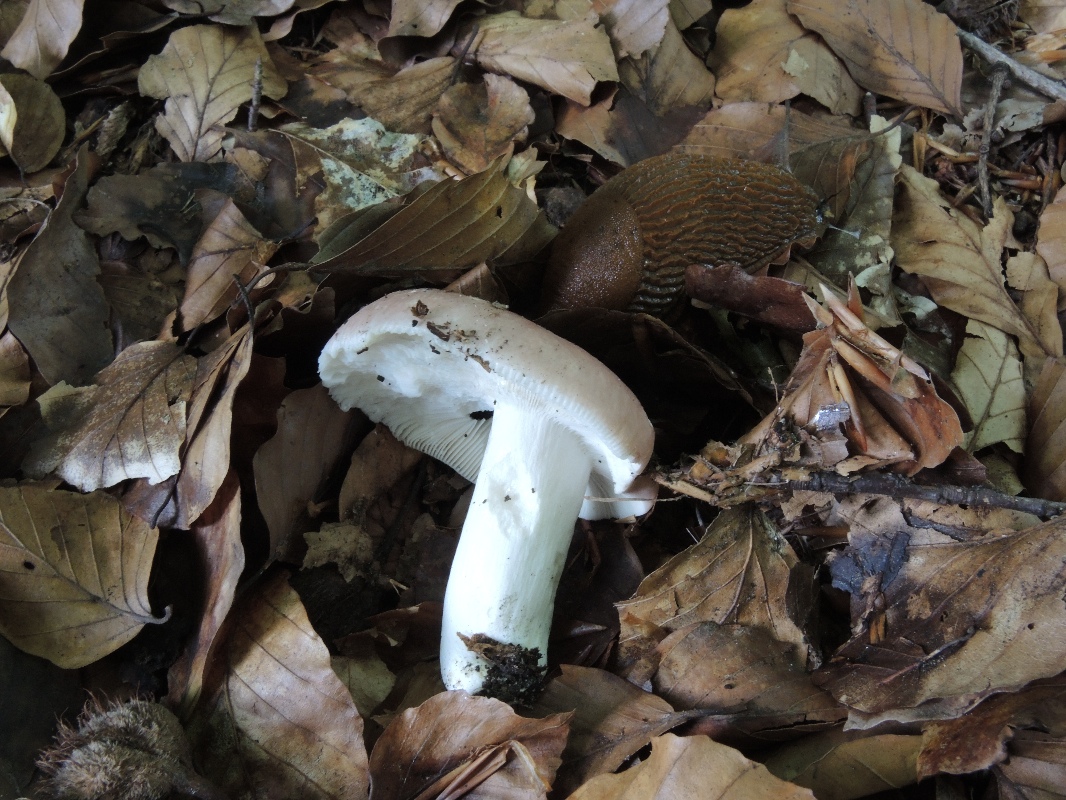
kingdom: Fungi
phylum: Basidiomycota
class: Agaricomycetes
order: Russulales
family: Russulaceae
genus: Russula
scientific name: Russula vesca
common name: spiselig skørhat
